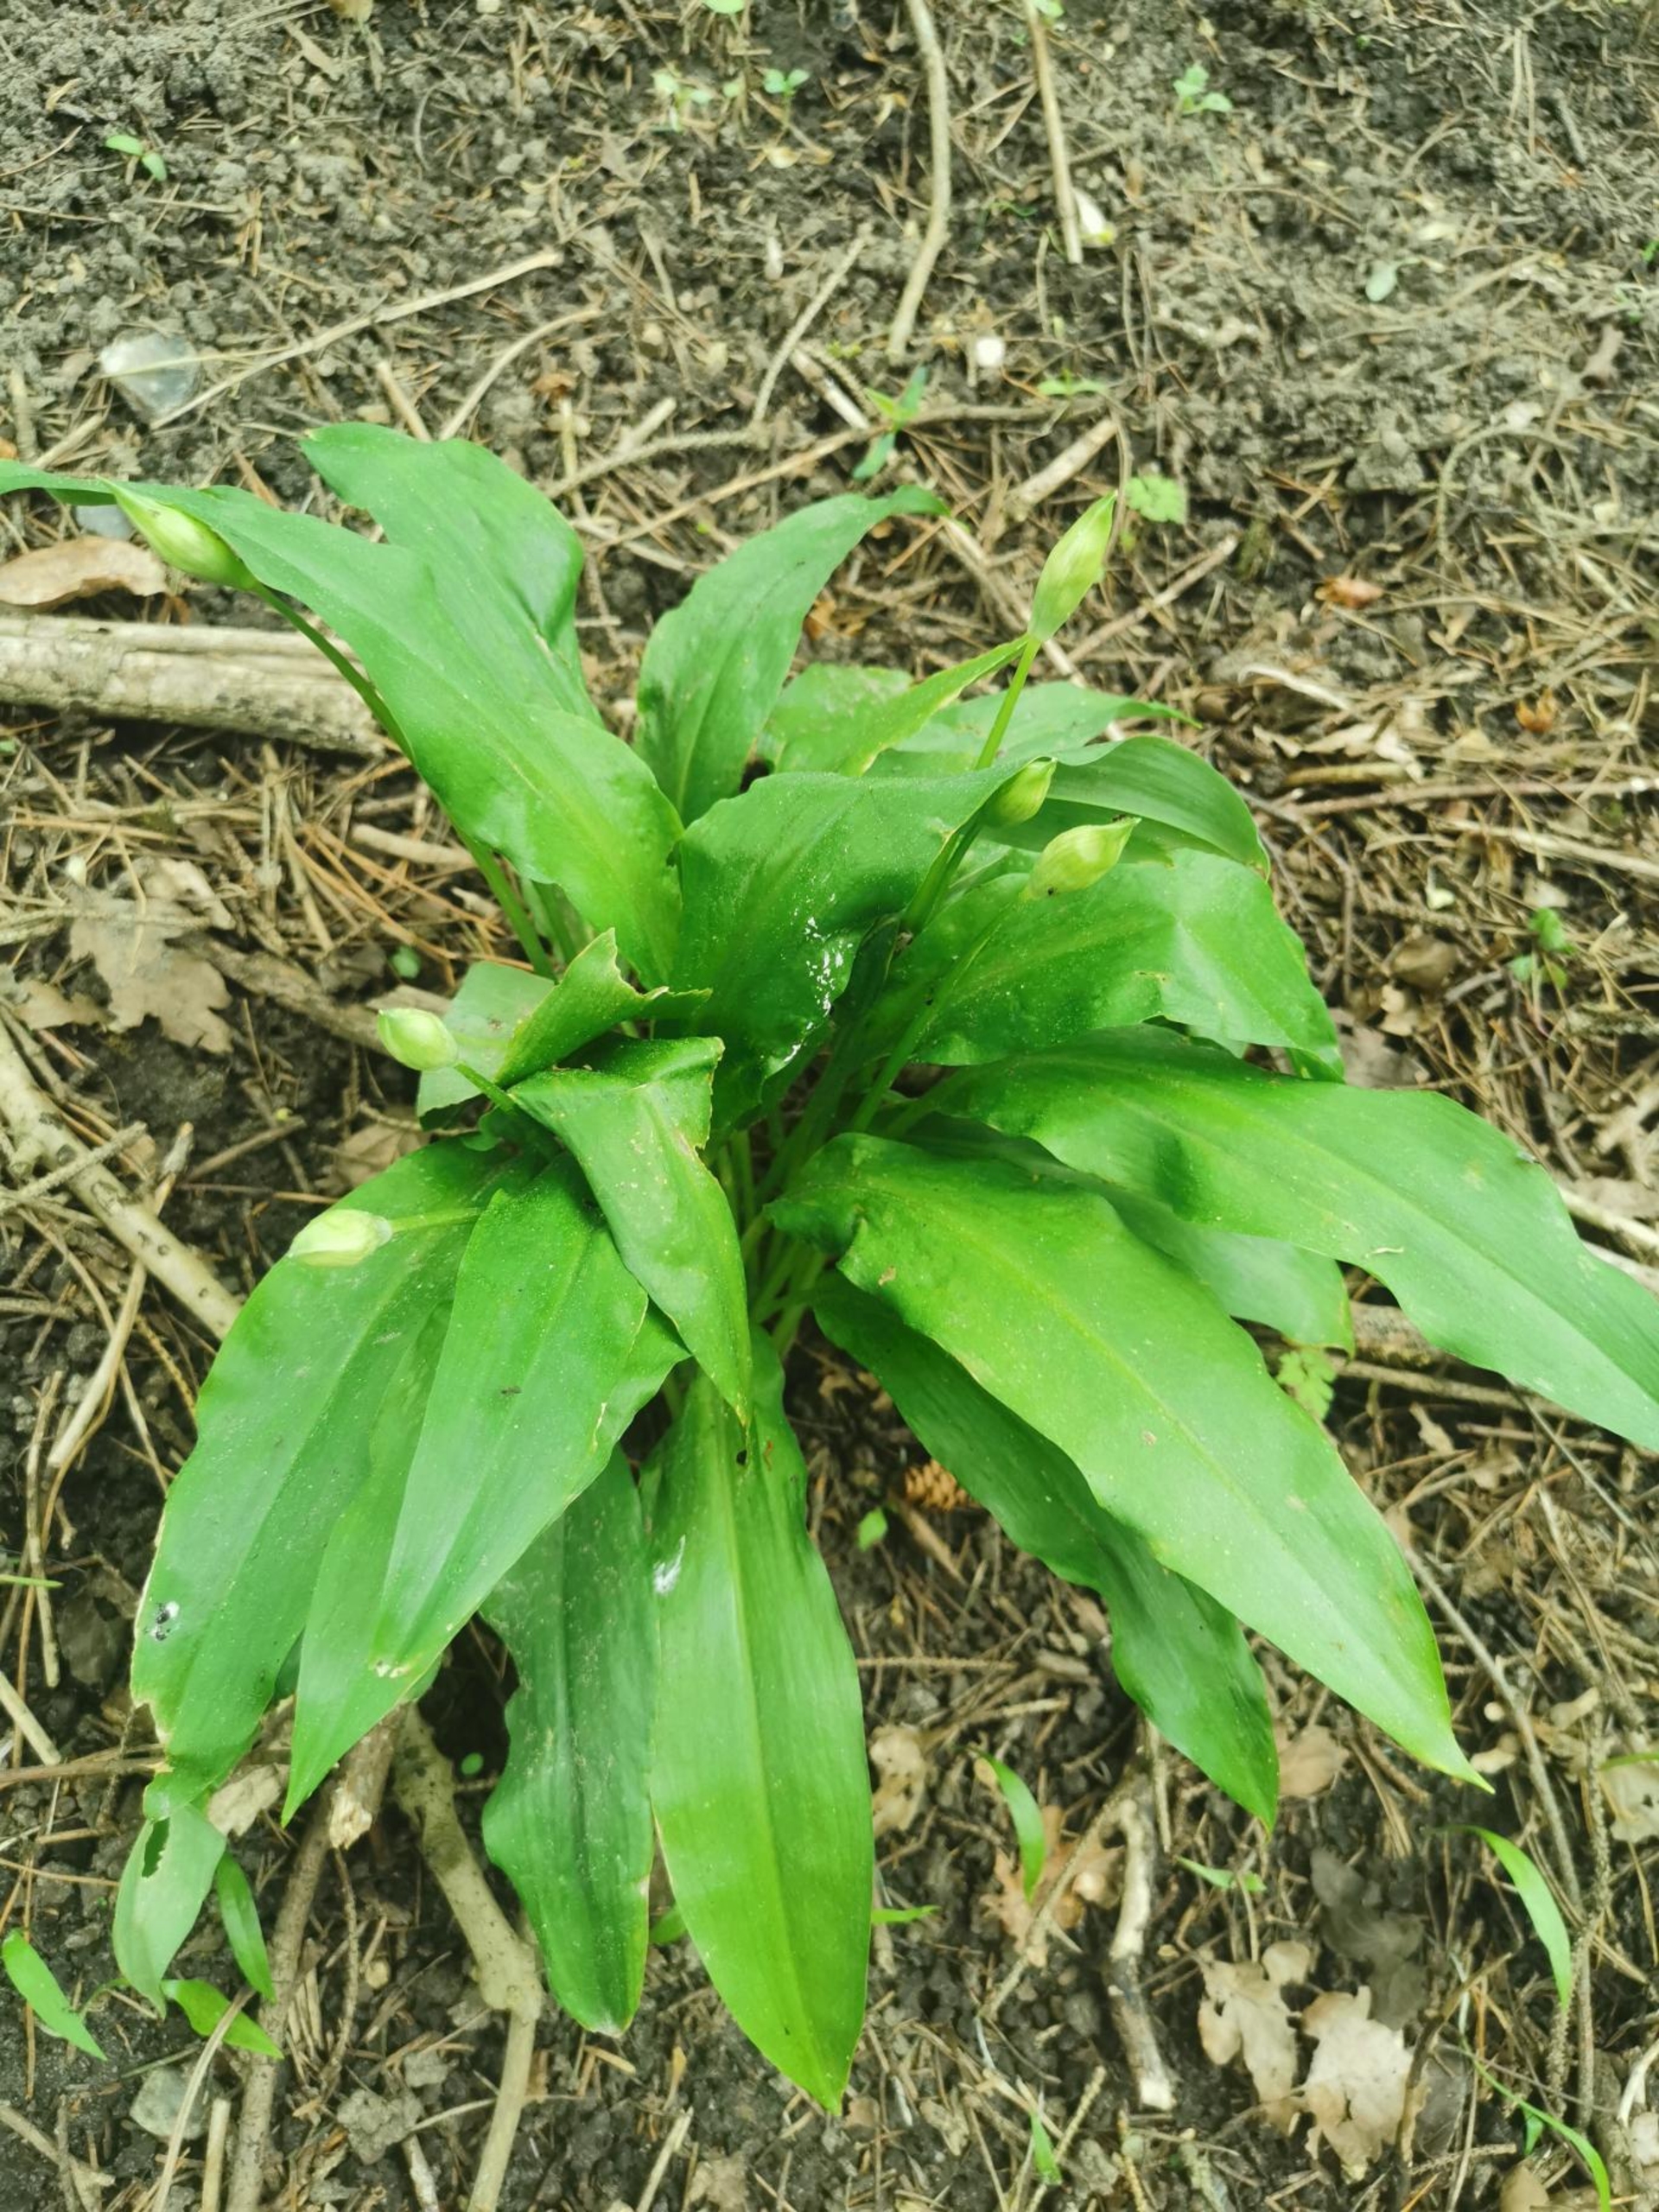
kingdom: Plantae
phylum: Tracheophyta
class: Liliopsida
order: Asparagales
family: Amaryllidaceae
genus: Allium
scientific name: Allium ursinum
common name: Rams-løg
